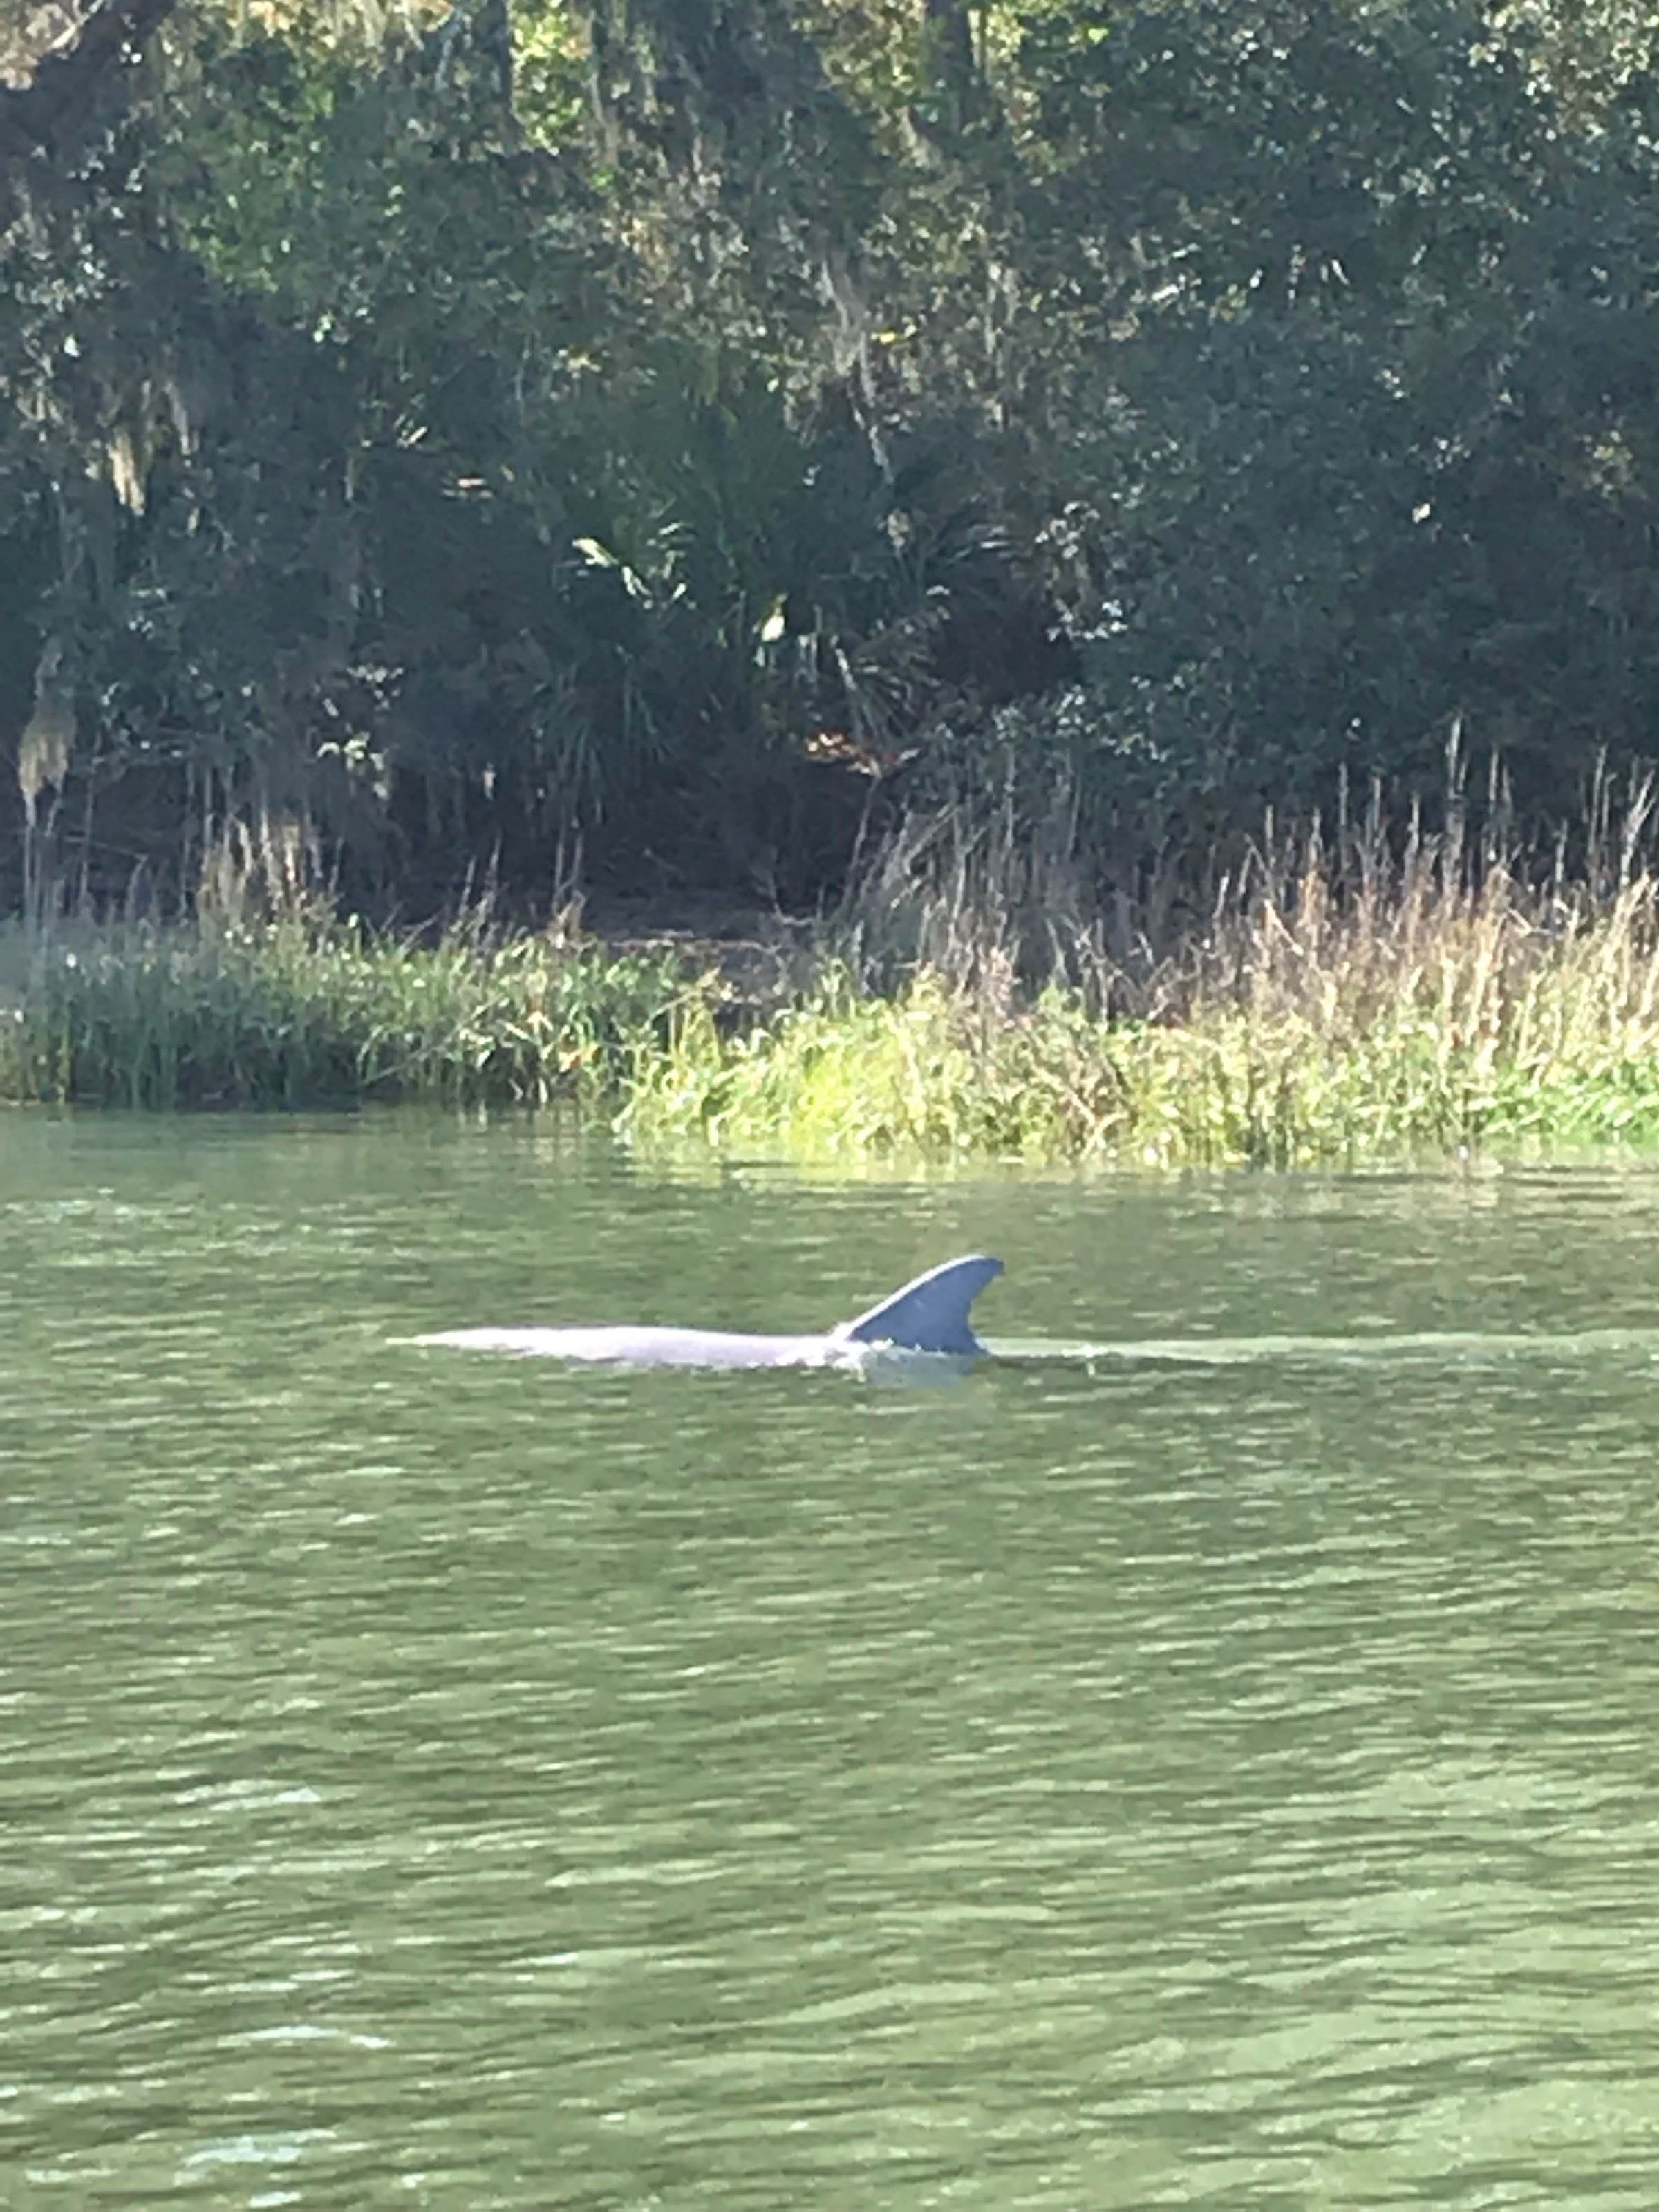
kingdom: Animalia
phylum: Chordata
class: Mammalia
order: Cetacea
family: Delphinidae
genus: Tursiops
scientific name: Tursiops truncatus
